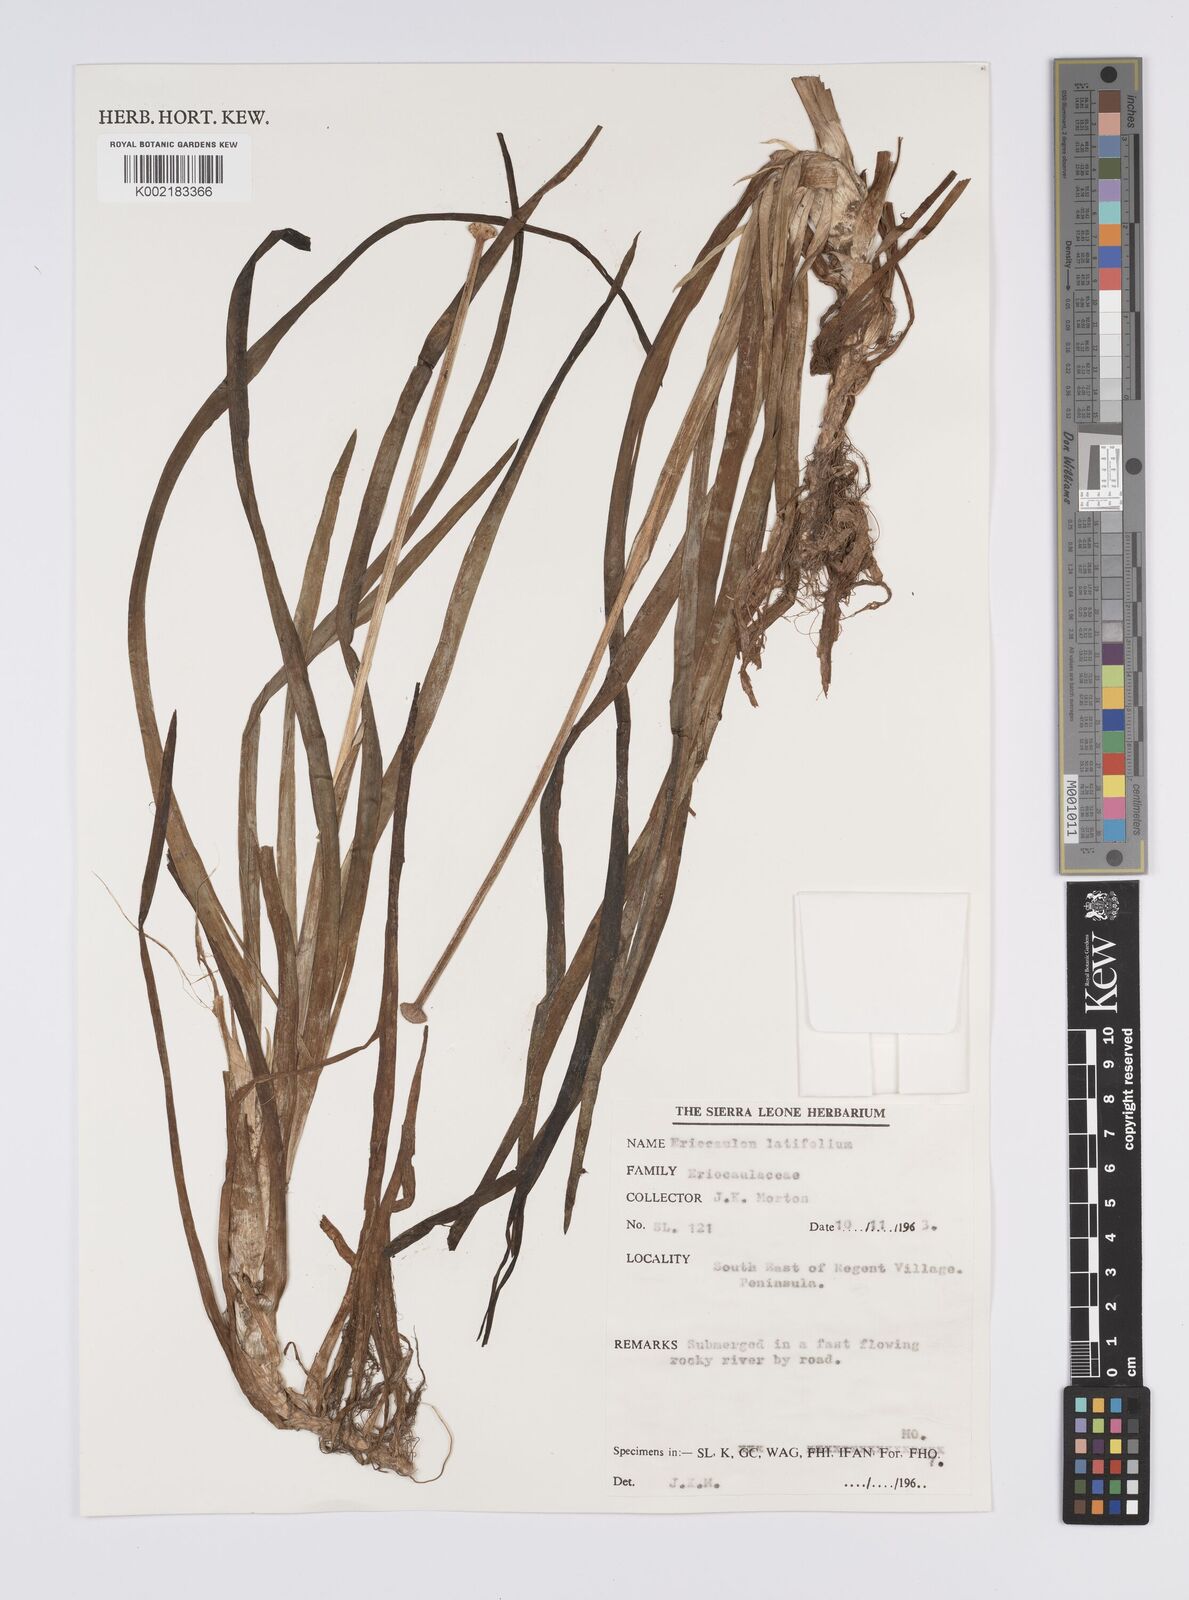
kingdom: Plantae
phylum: Tracheophyta
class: Liliopsida
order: Poales
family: Eriocaulaceae
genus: Eriocaulon
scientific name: Eriocaulon latifolium
